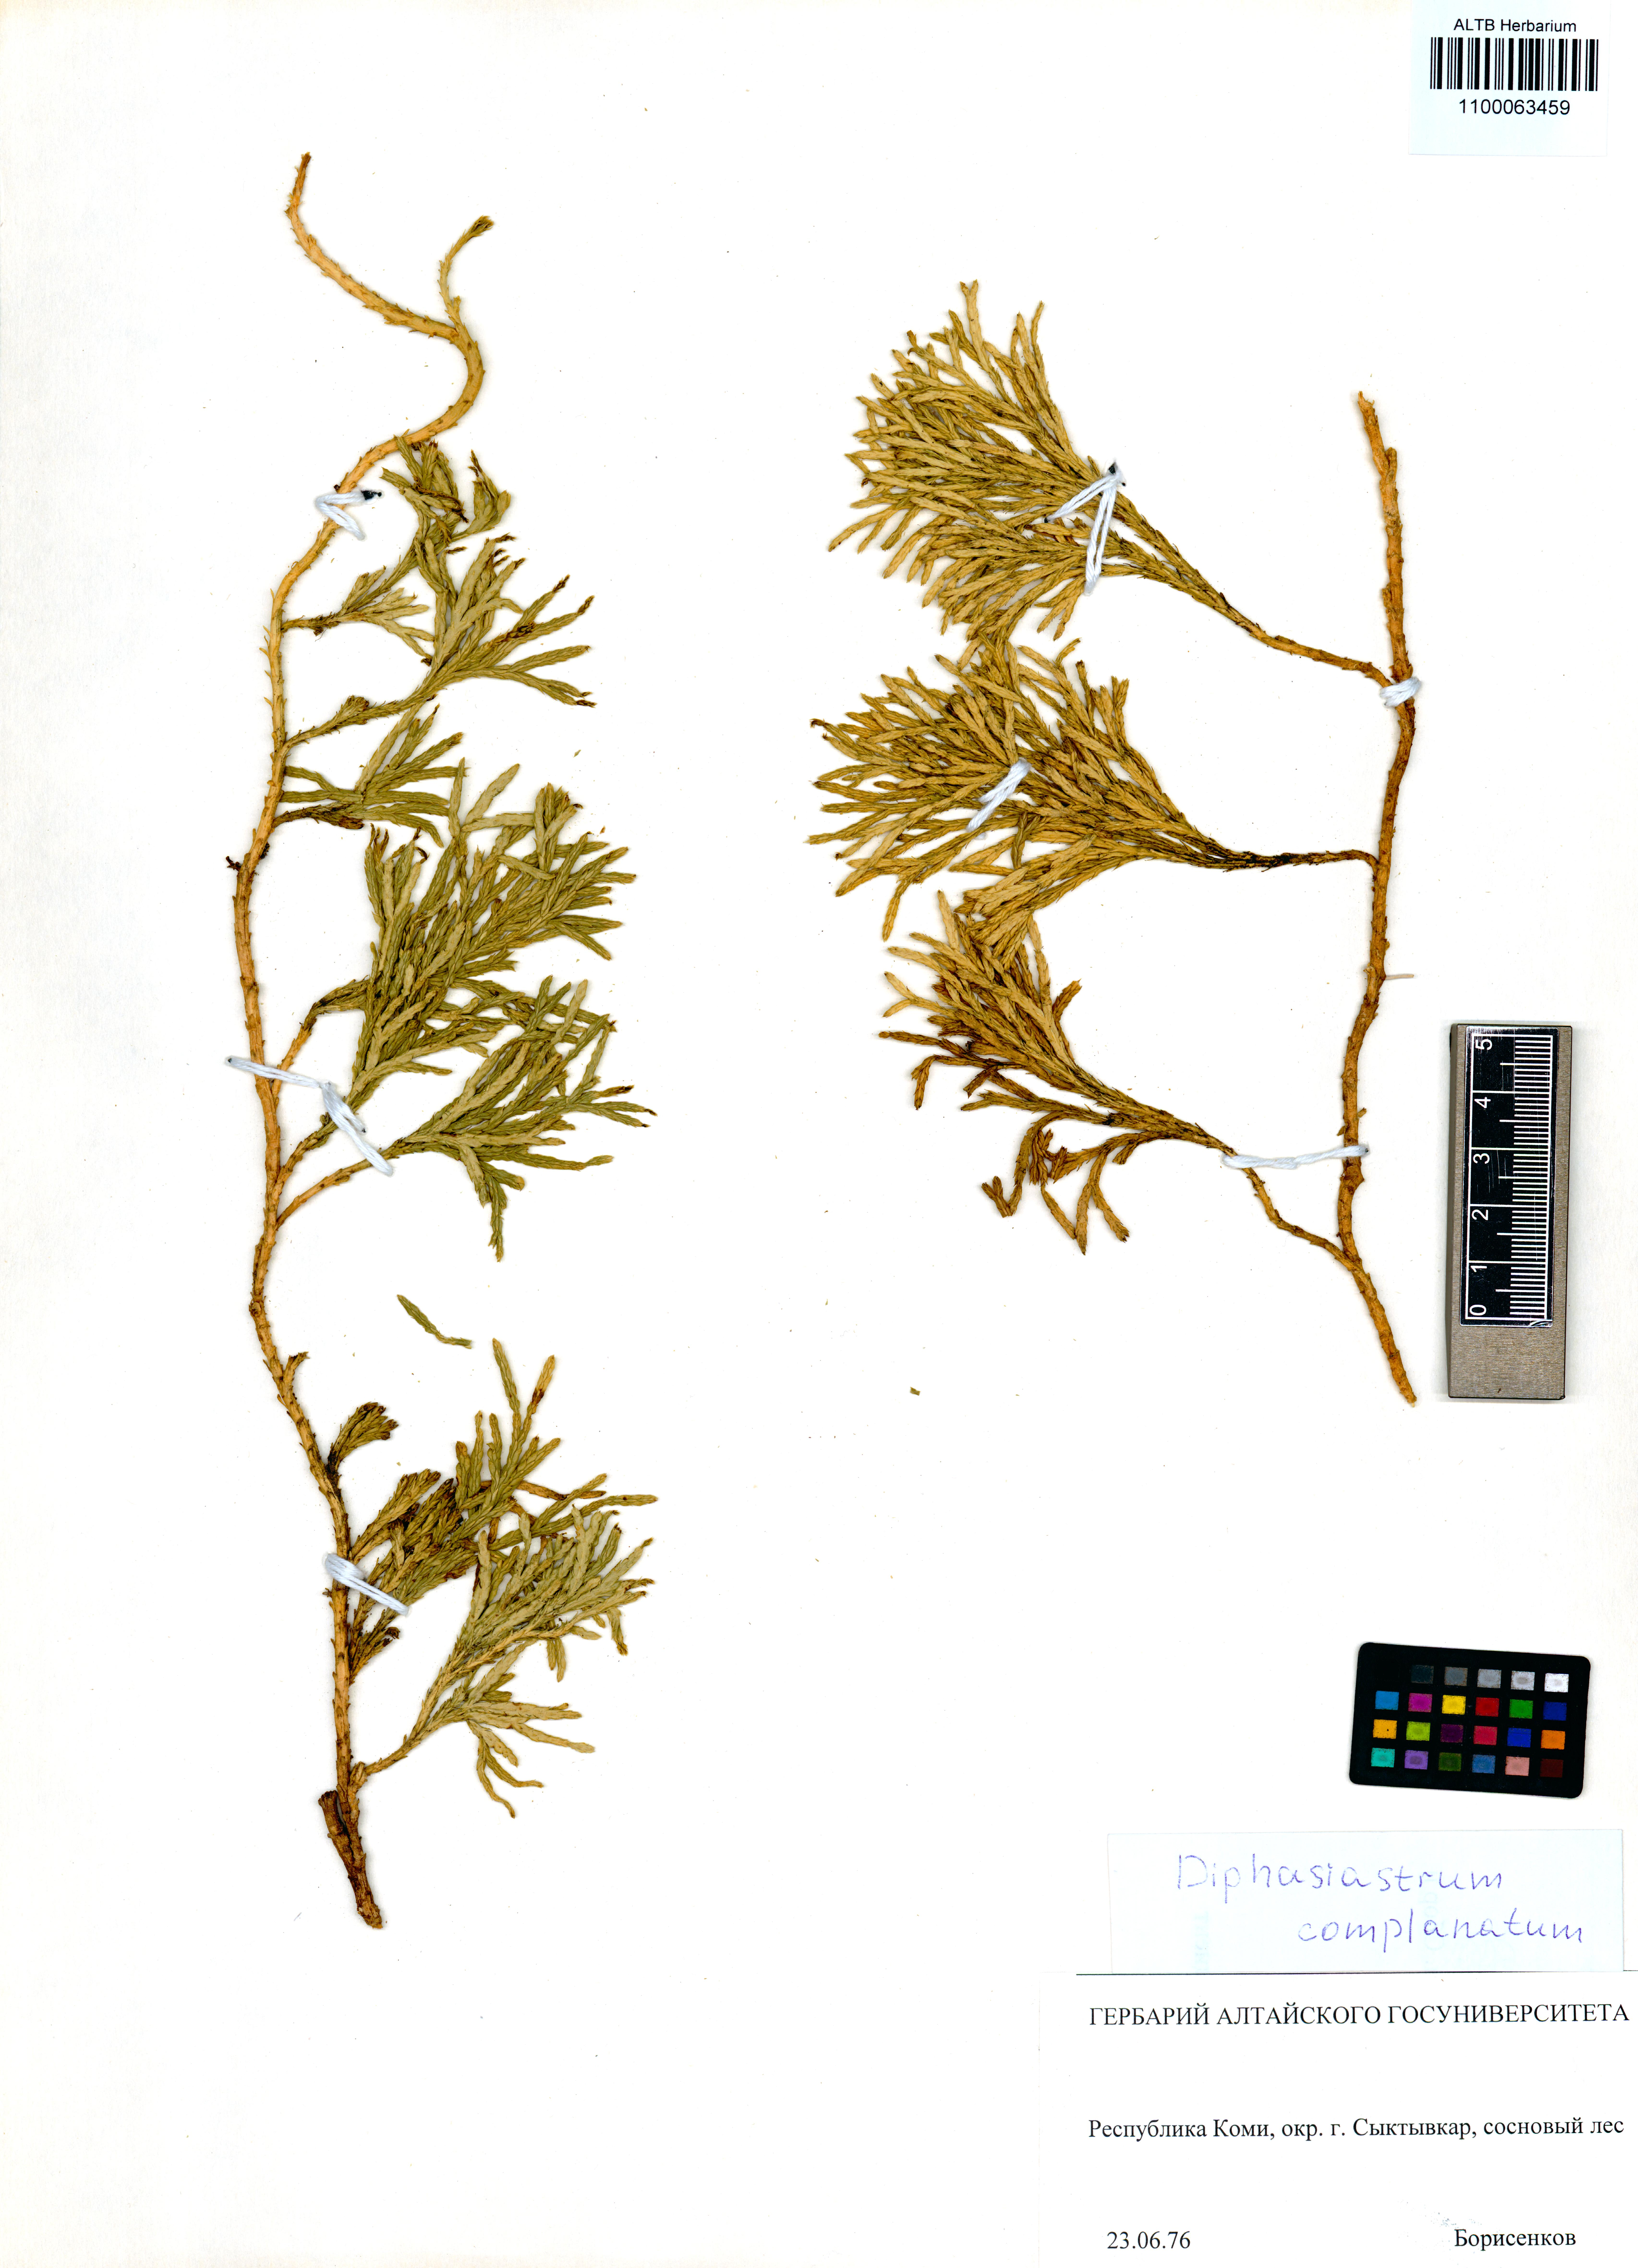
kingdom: Plantae
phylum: Tracheophyta
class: Lycopodiopsida
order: Lycopodiales
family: Lycopodiaceae
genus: Diphasiastrum
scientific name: Diphasiastrum complanatum
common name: Northern running-pine
